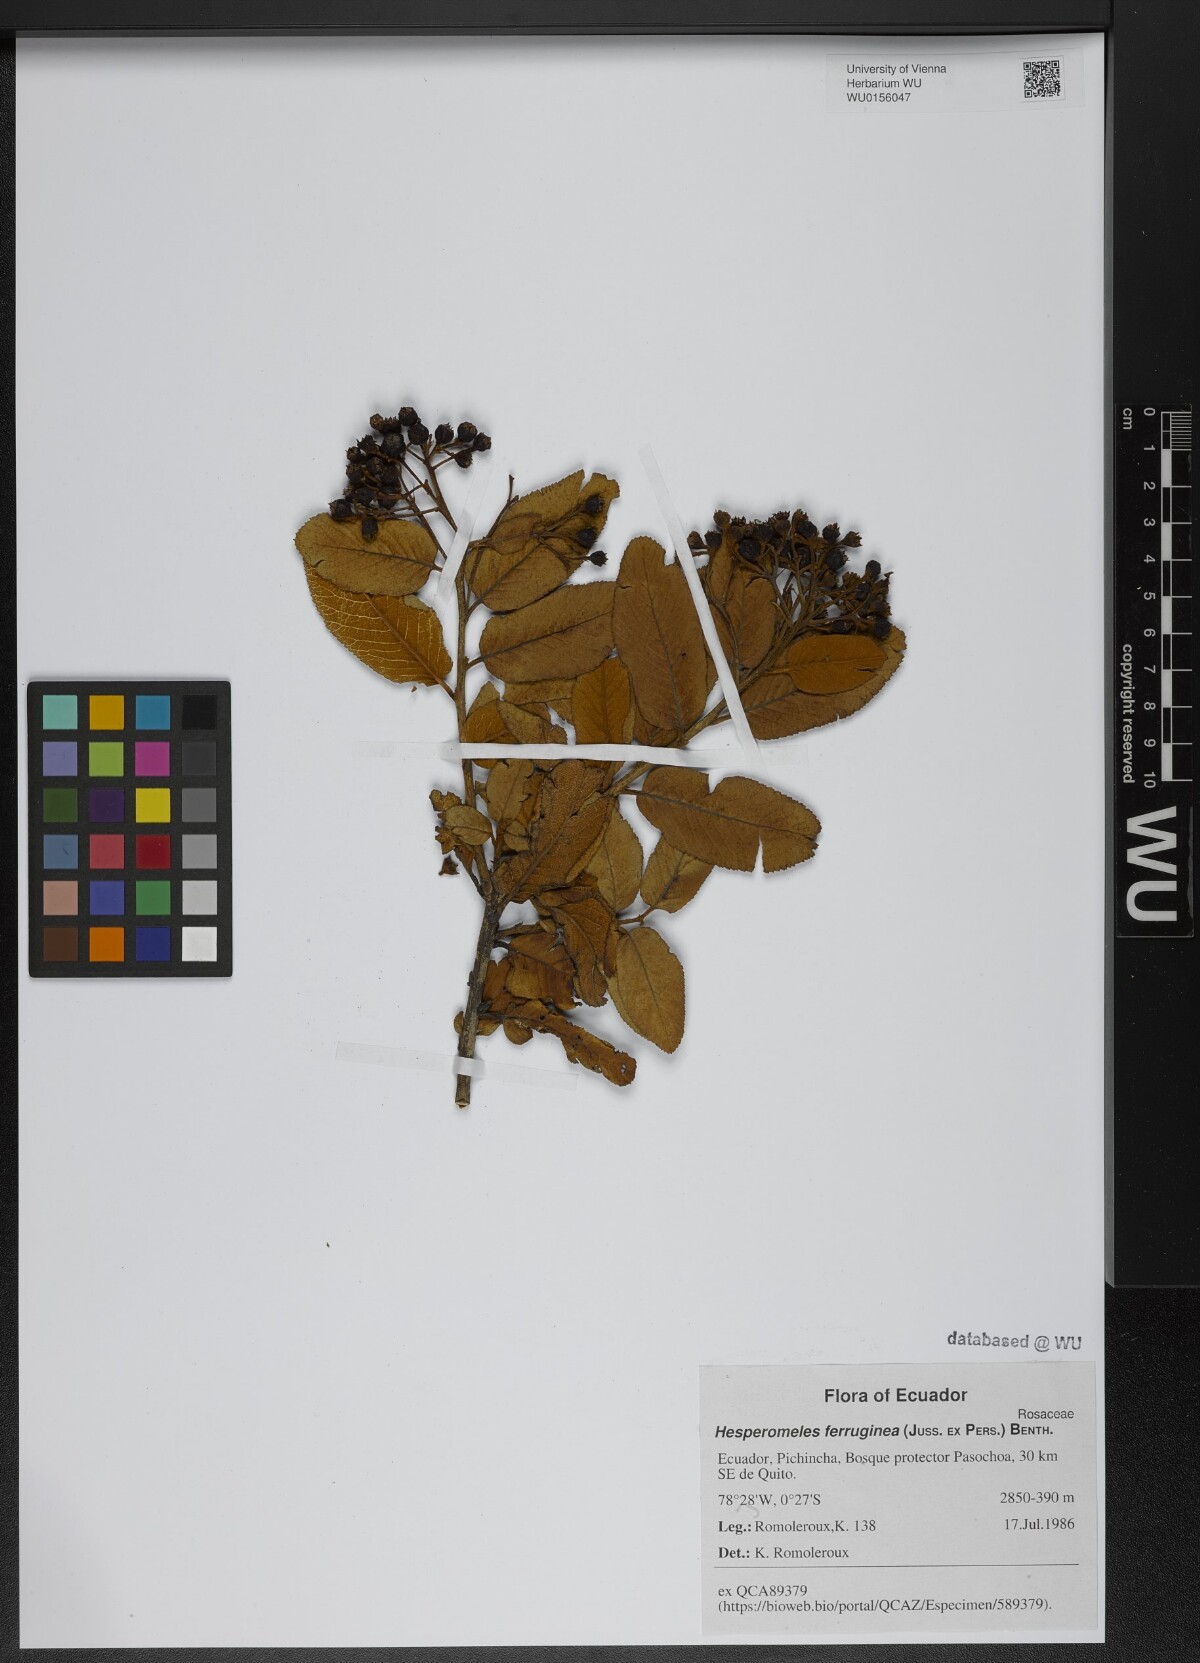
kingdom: Plantae
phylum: Tracheophyta
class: Magnoliopsida
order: Rosales
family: Rosaceae
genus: Hesperomeles
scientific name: Hesperomeles ferruginea
